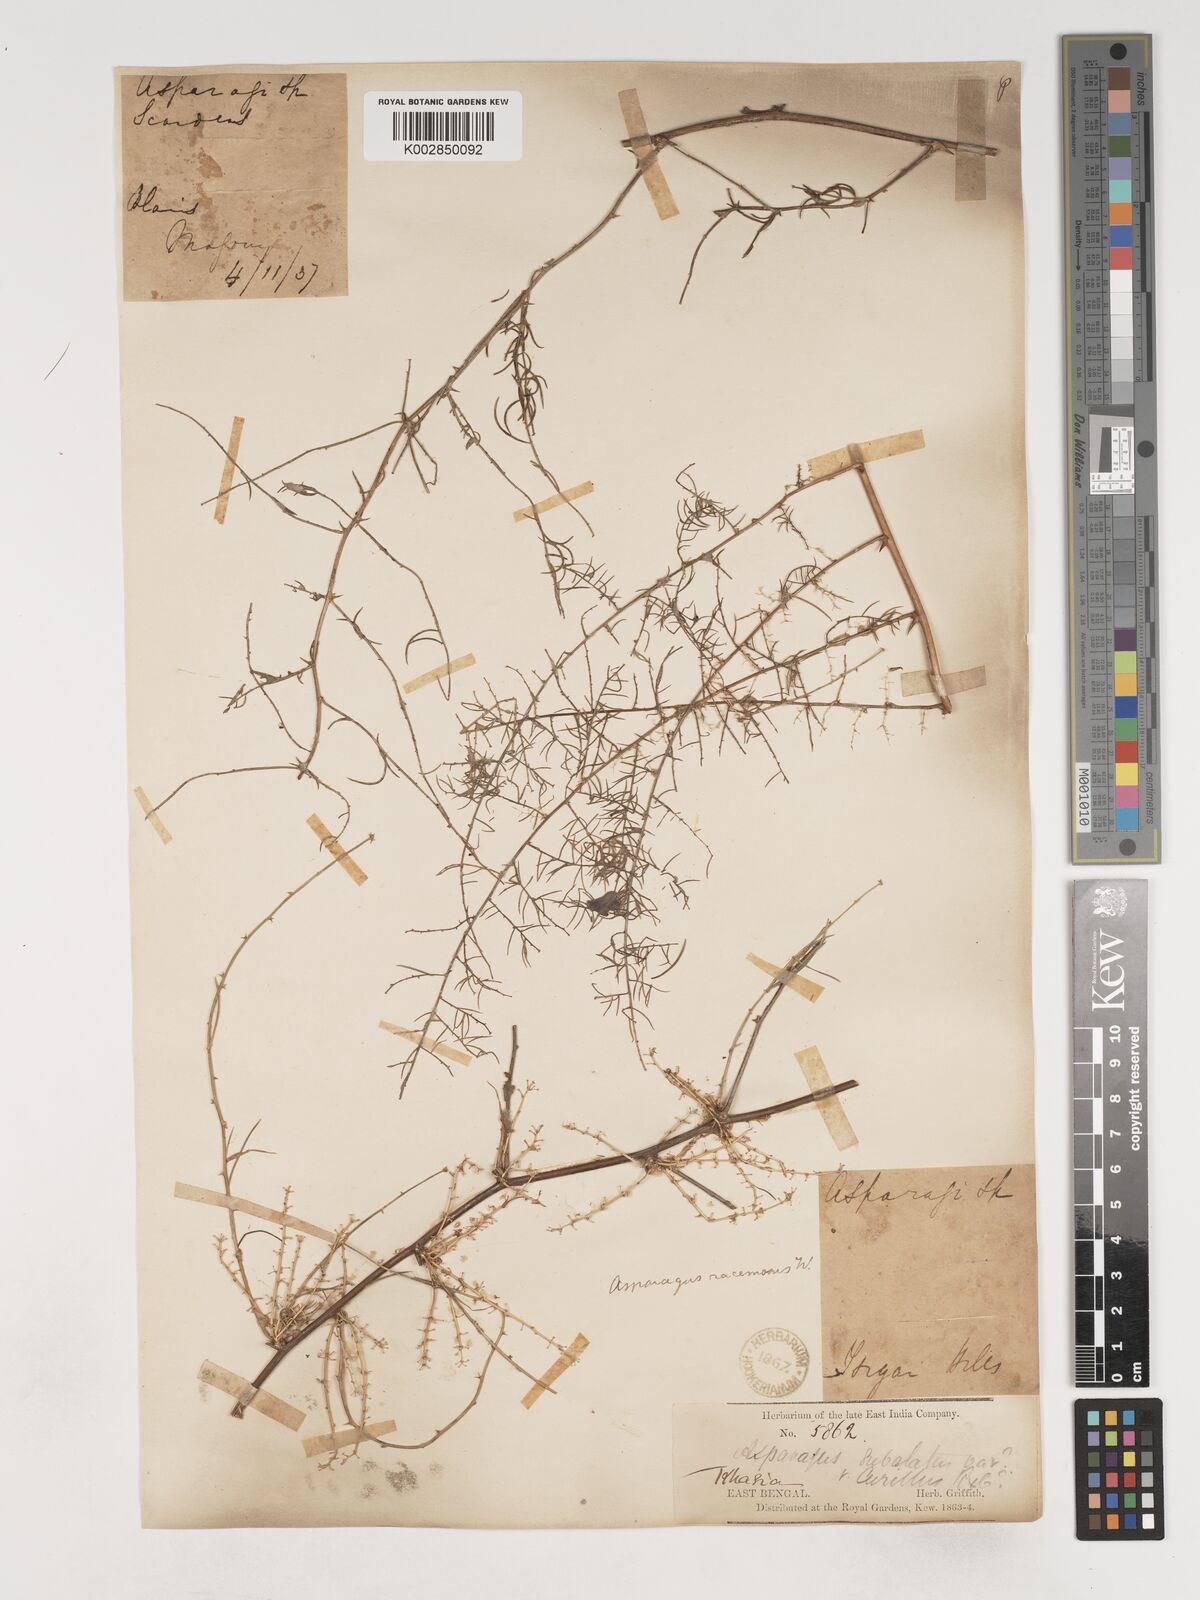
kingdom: Plantae
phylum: Tracheophyta
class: Liliopsida
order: Asparagales
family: Asparagaceae
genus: Asparagus
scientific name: Asparagus racemosus
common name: Asparagus-fern
